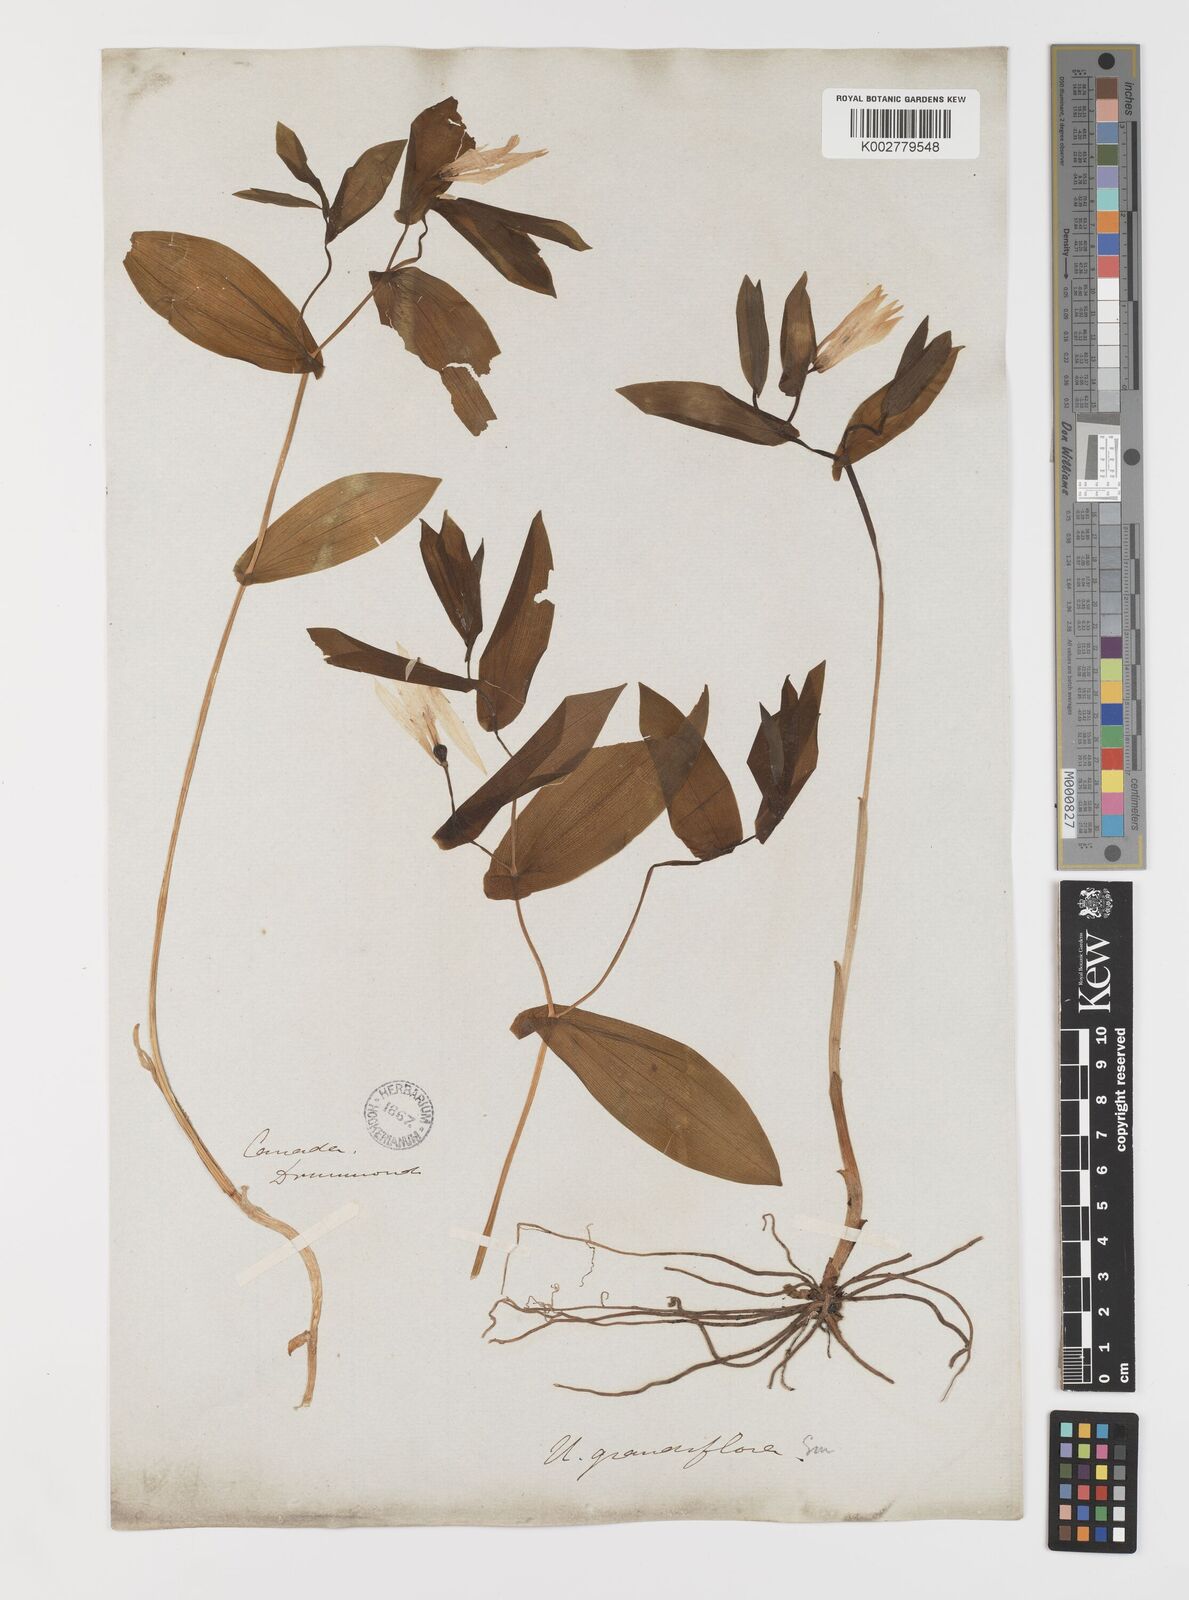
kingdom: Plantae
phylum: Tracheophyta
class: Liliopsida
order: Liliales
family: Colchicaceae
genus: Uvularia
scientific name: Uvularia grandiflora
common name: Bellwort
